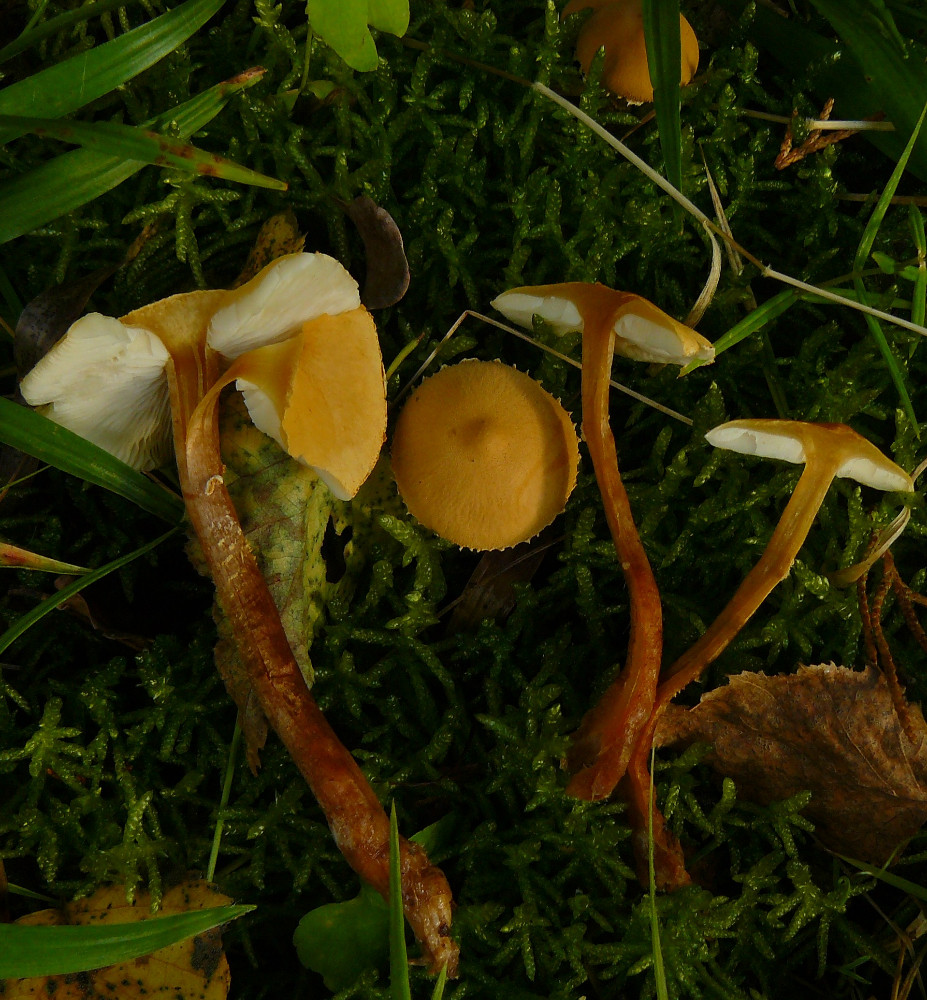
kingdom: Fungi
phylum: Basidiomycota
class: Agaricomycetes
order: Agaricales
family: Tricholomataceae
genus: Cystoderma
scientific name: Cystoderma
